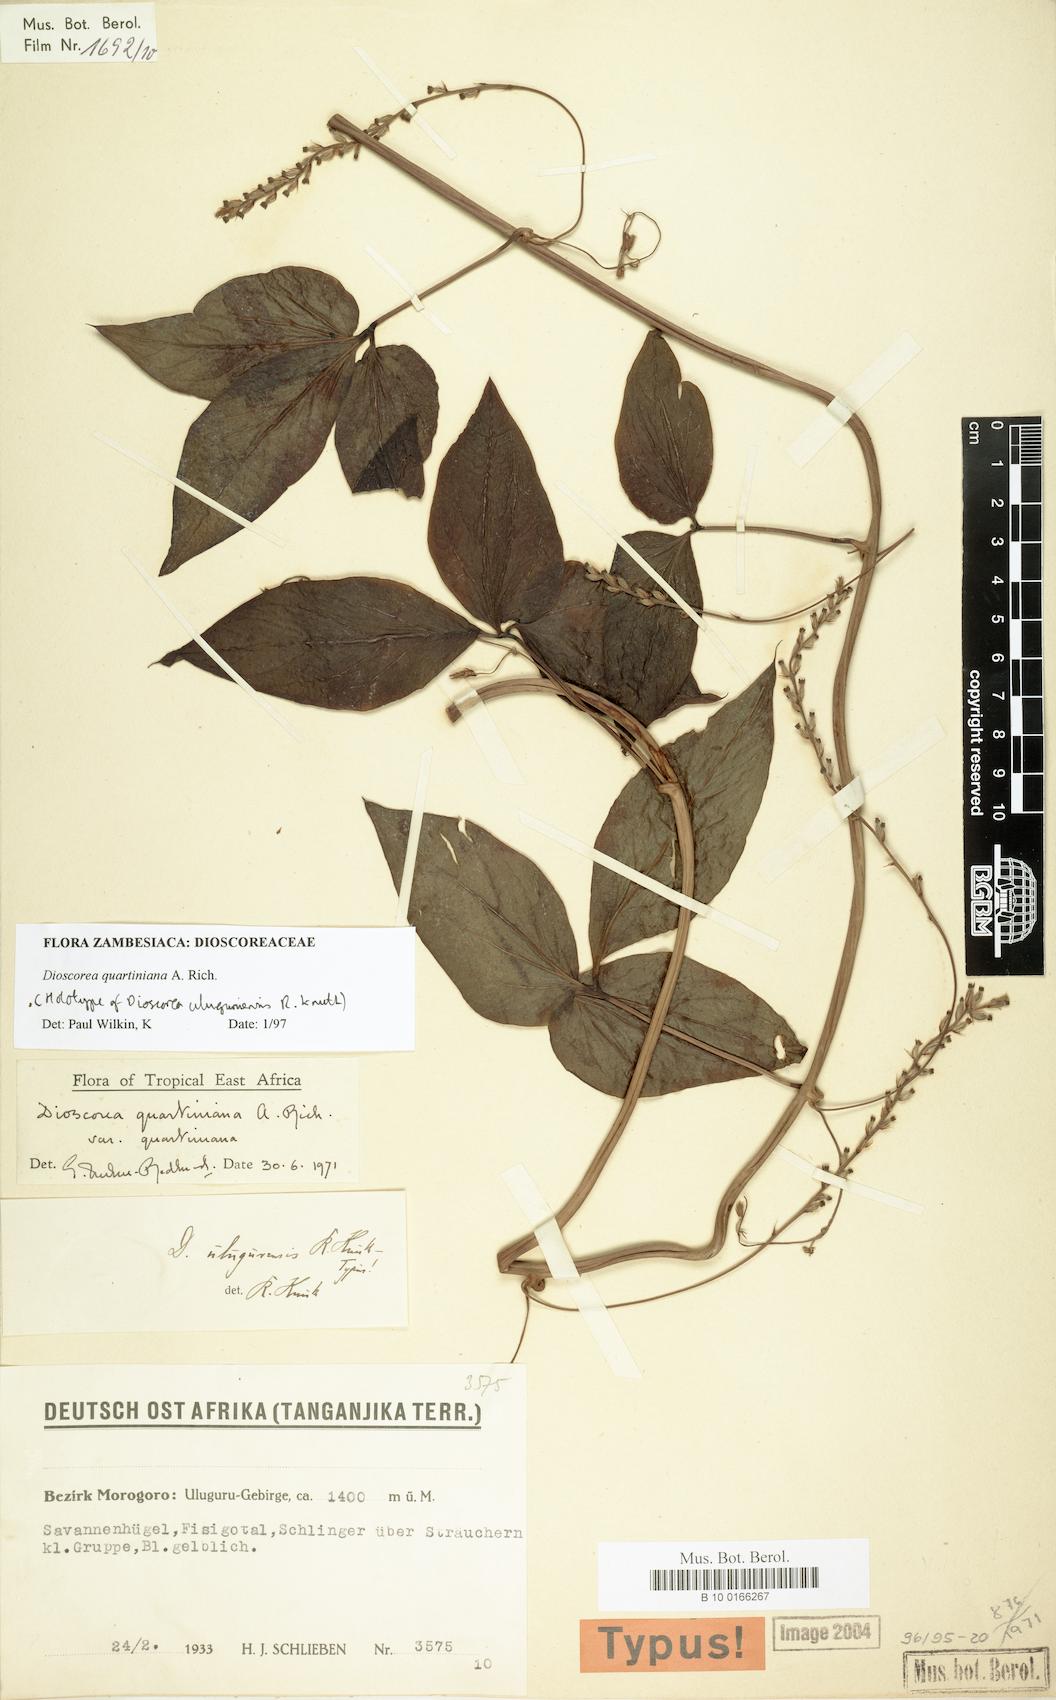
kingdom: Plantae
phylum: Tracheophyta
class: Liliopsida
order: Dioscoreales
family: Dioscoreaceae
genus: Dioscorea
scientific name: Dioscorea quartiniana
